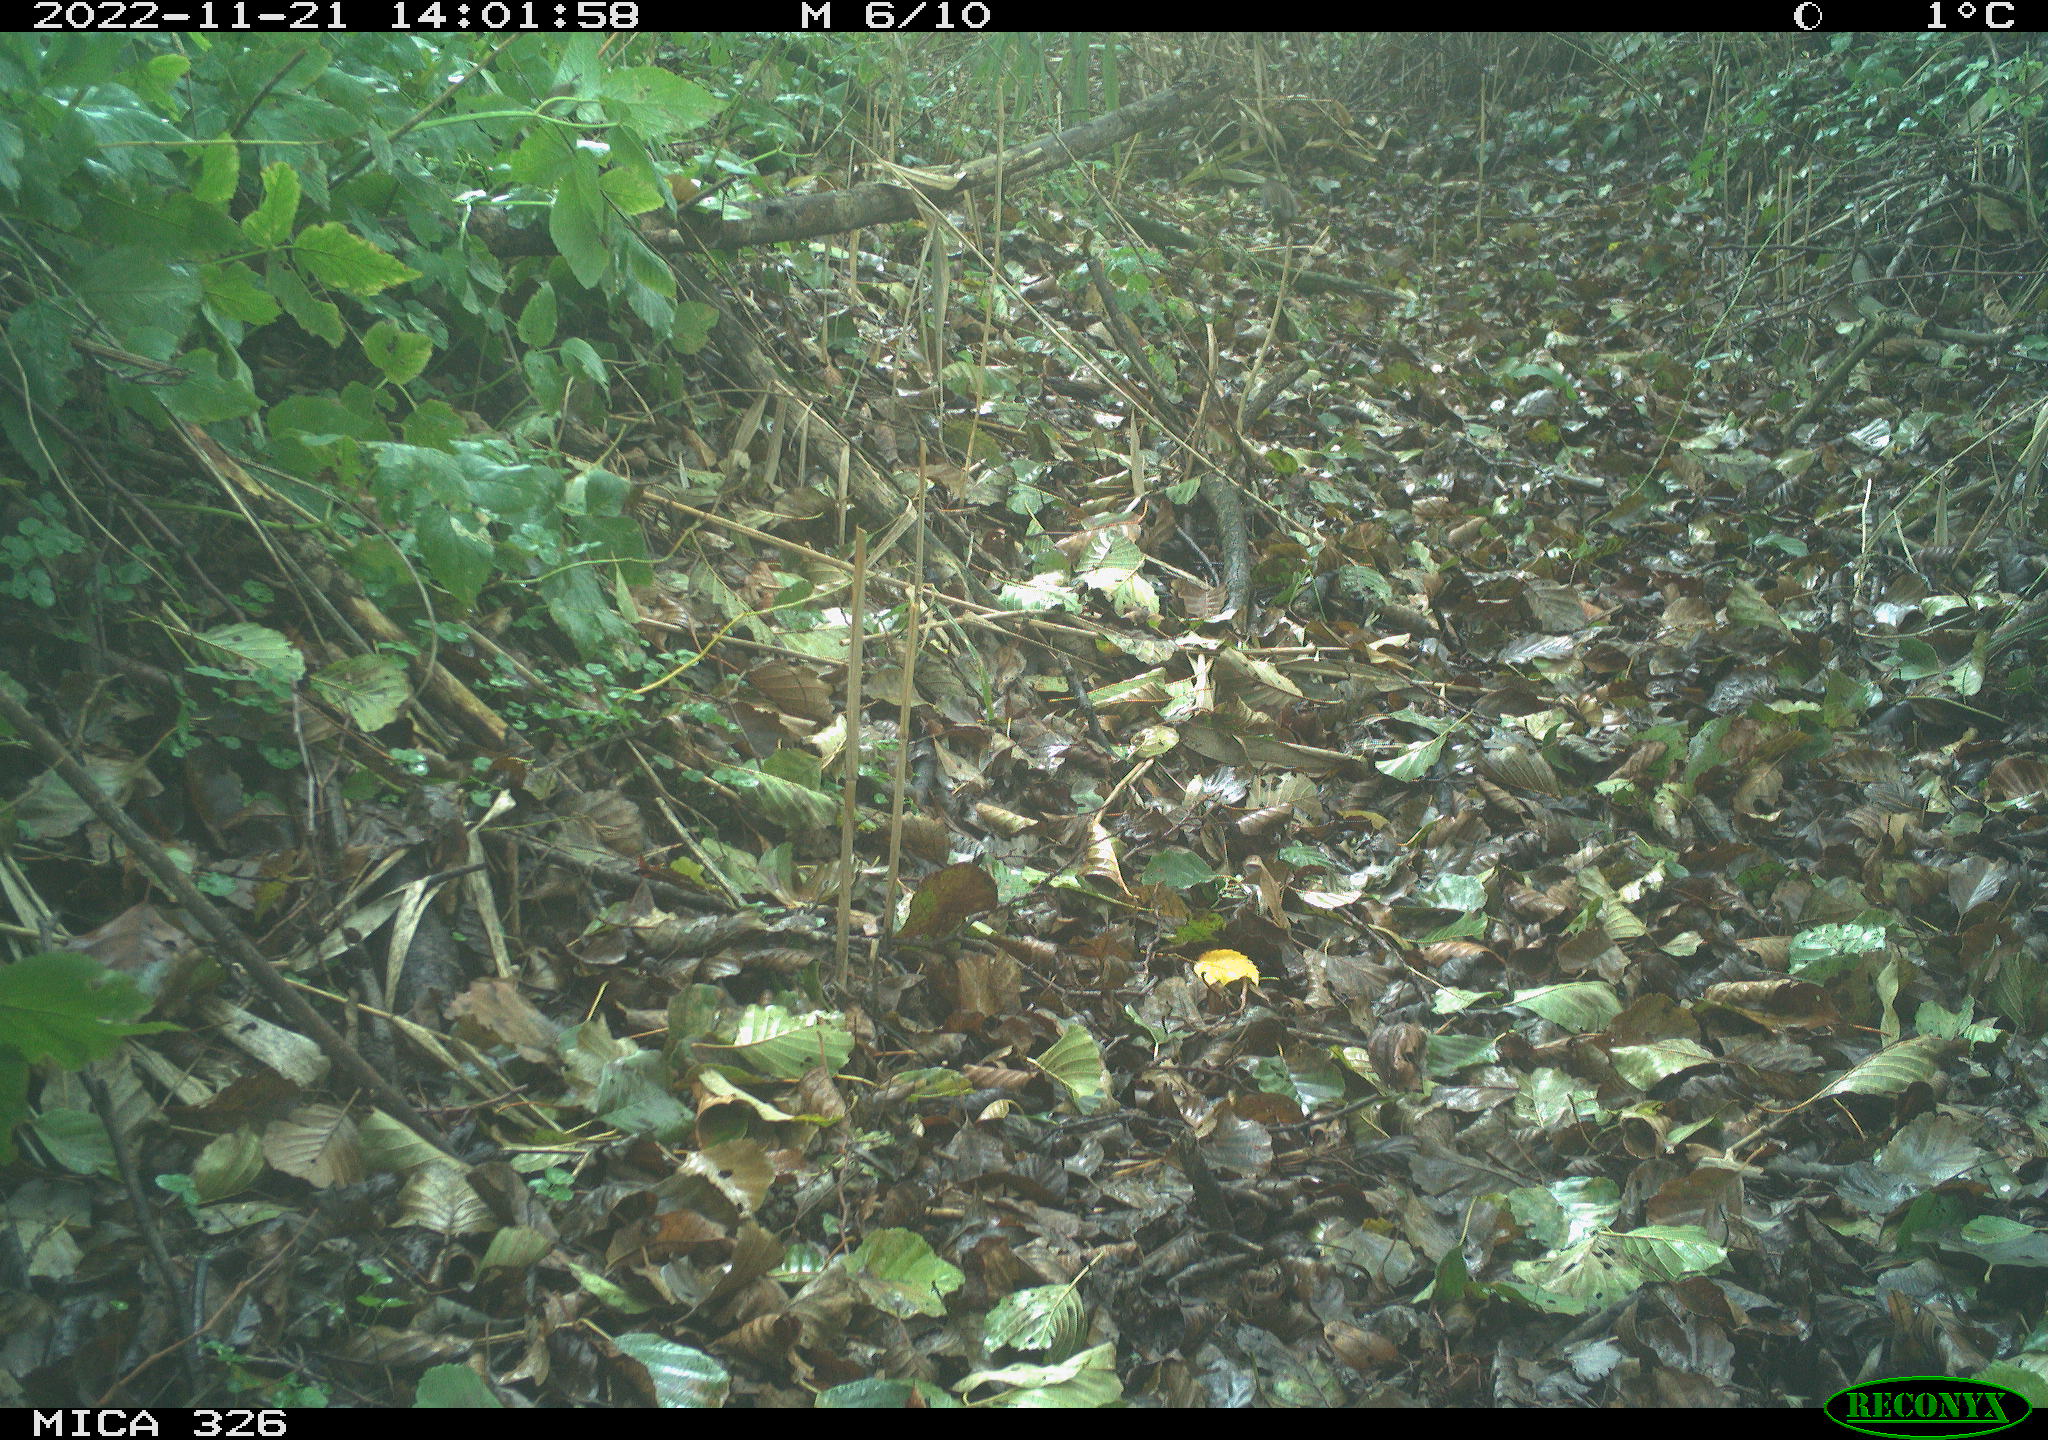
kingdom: Animalia
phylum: Chordata
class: Aves
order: Passeriformes
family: Turdidae
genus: Turdus
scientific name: Turdus merula
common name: Common blackbird
